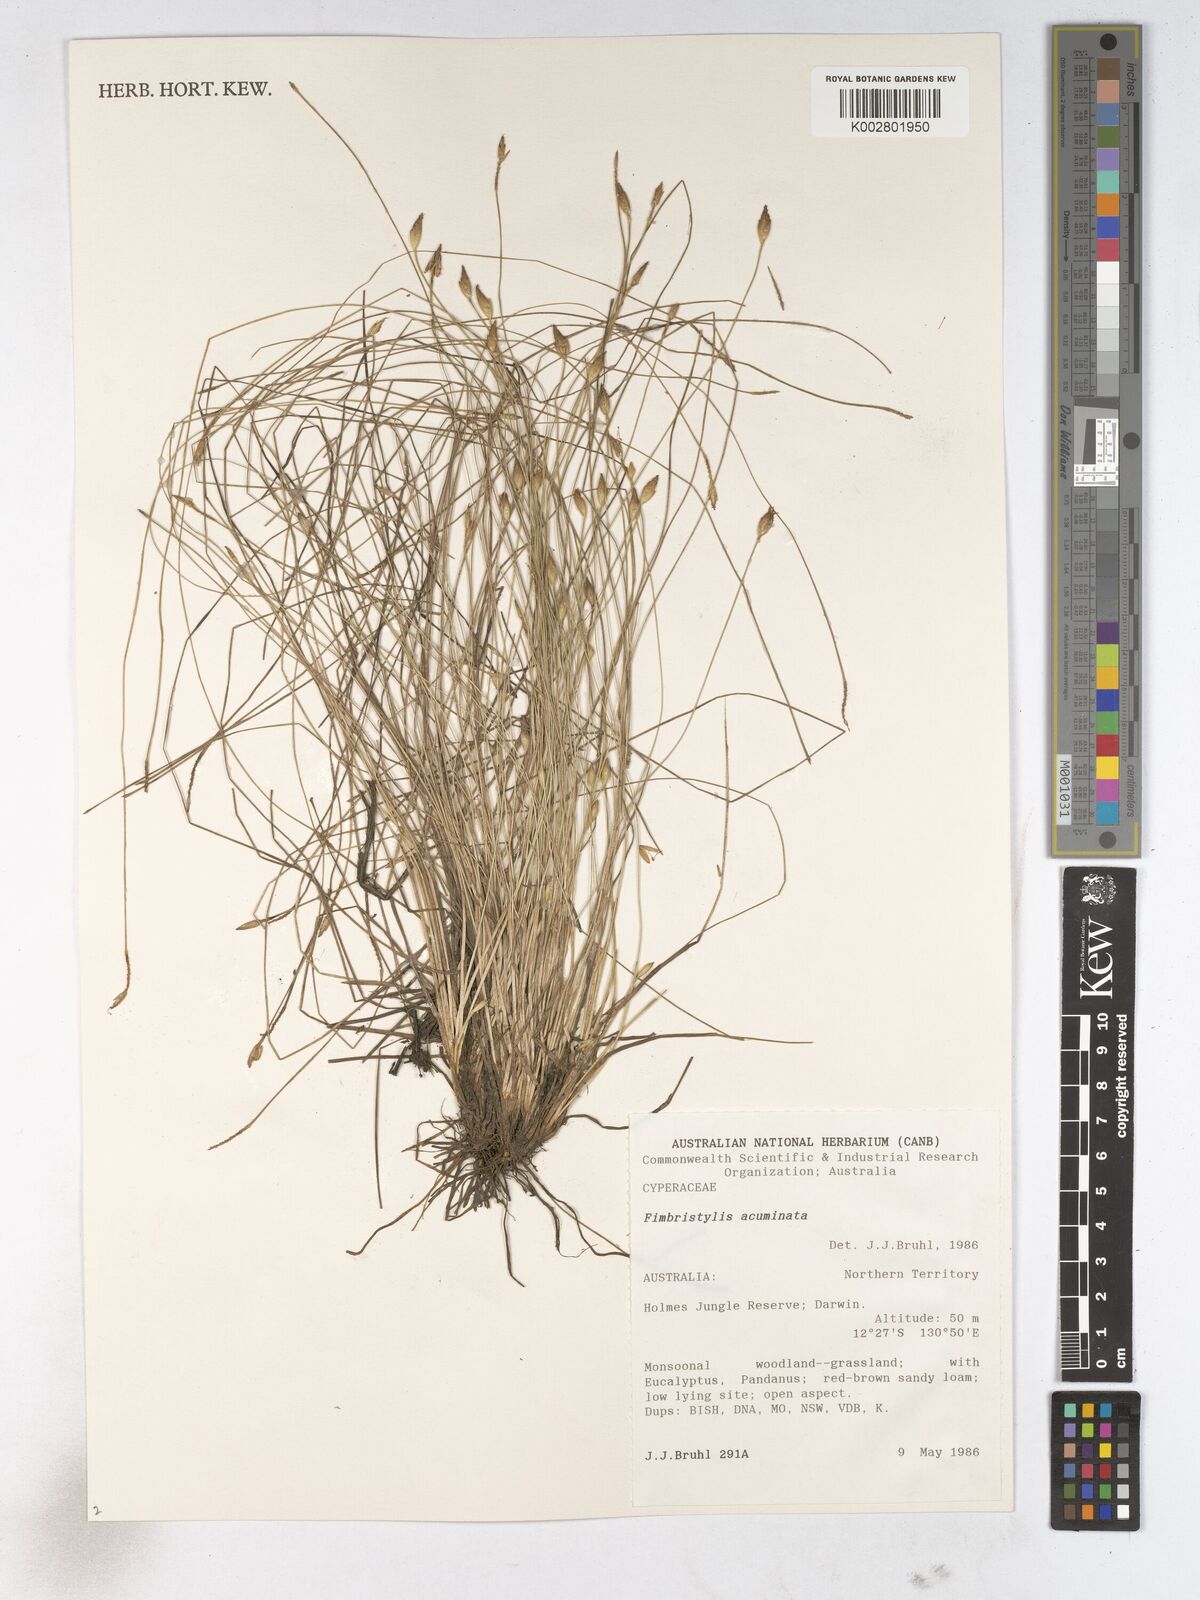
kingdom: Plantae
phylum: Tracheophyta
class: Liliopsida
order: Poales
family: Cyperaceae
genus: Fimbristylis
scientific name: Fimbristylis acuminata
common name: Pointed fimbristylis
